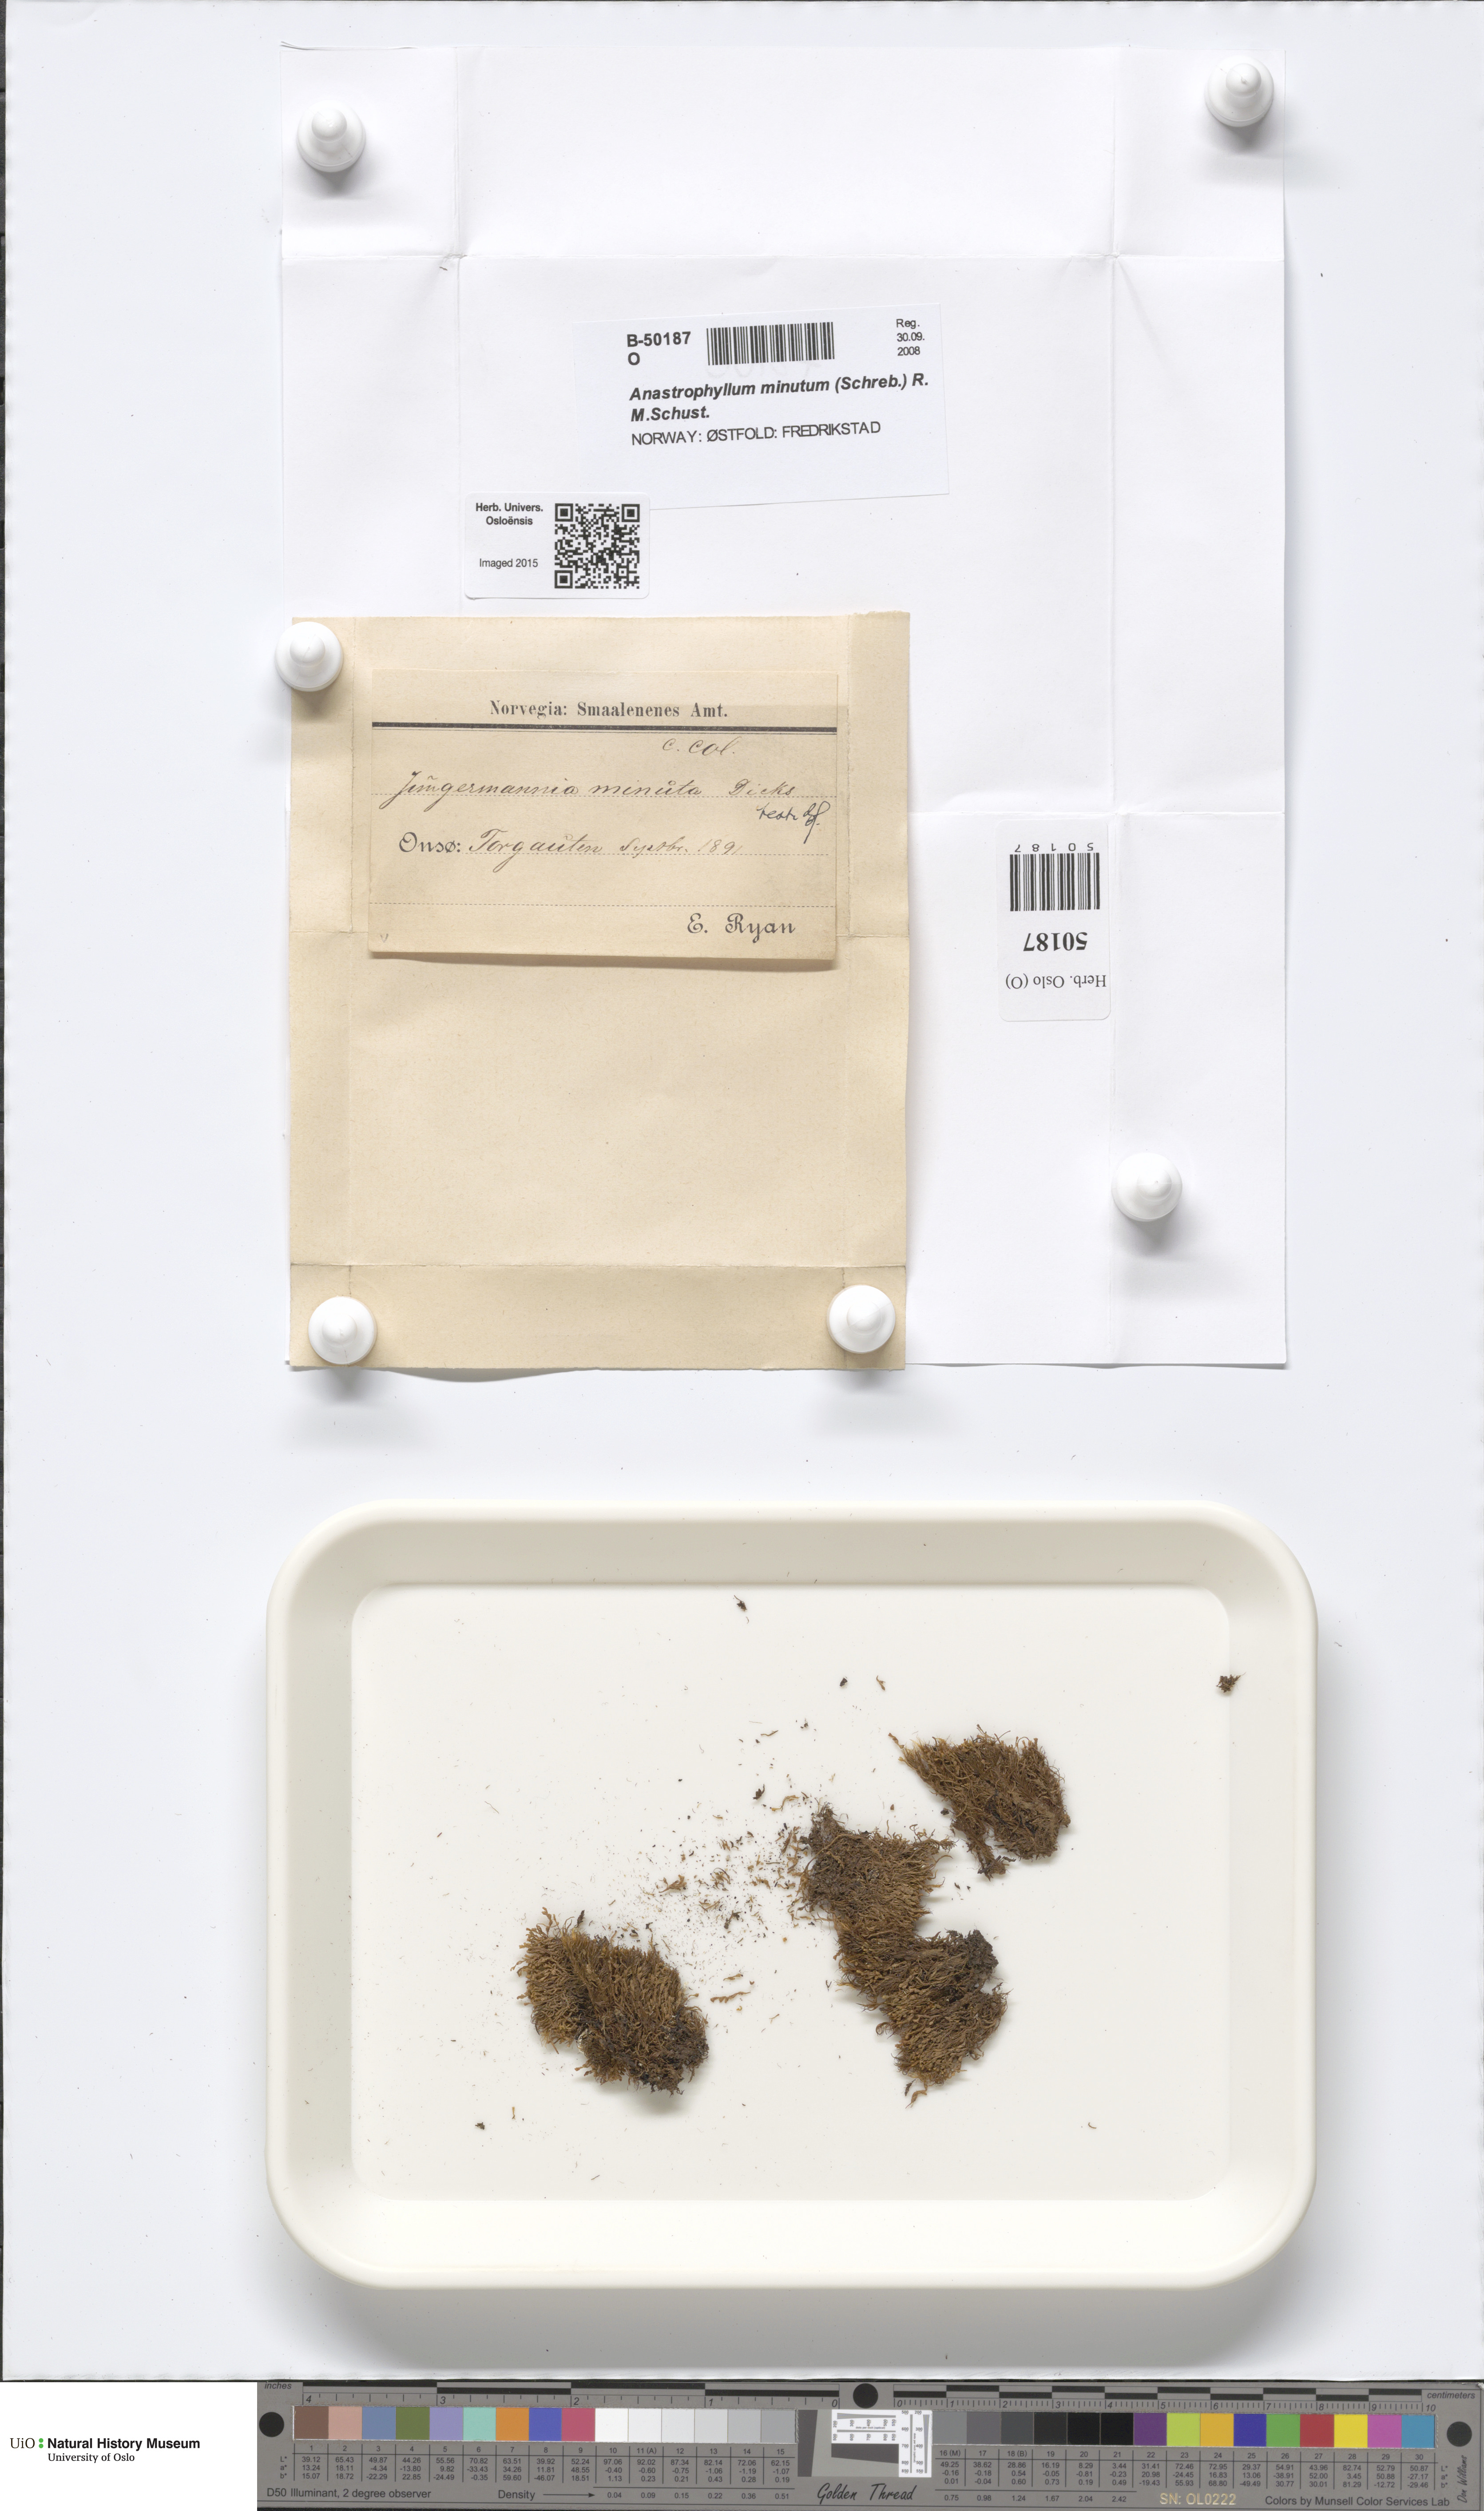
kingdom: Plantae
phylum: Marchantiophyta
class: Jungermanniopsida
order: Jungermanniales
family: Anastrophyllaceae
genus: Sphenolobus
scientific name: Sphenolobus minutus
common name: Comb notchwort
